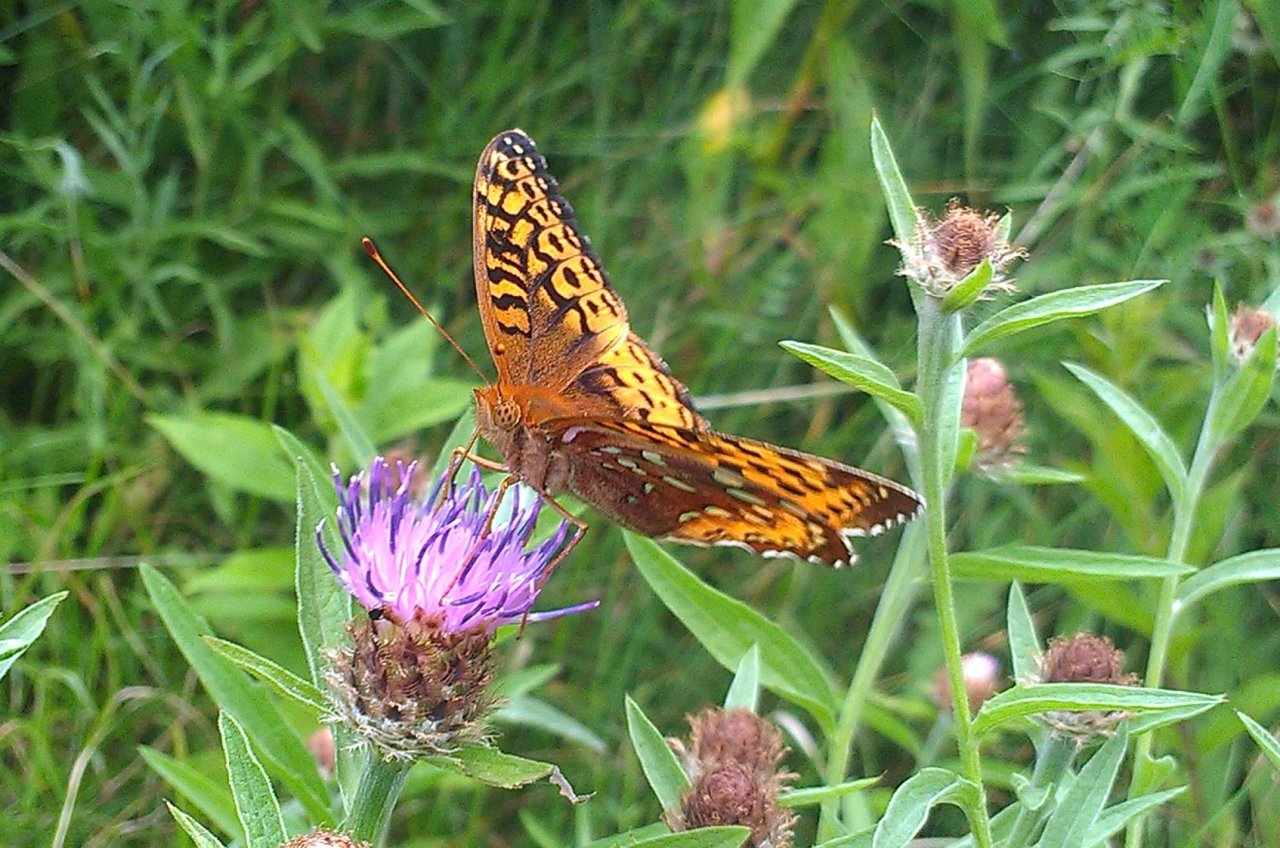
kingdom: Animalia
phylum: Arthropoda
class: Insecta
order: Lepidoptera
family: Nymphalidae
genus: Speyeria
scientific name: Speyeria cybele
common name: Great Spangled Fritillary
